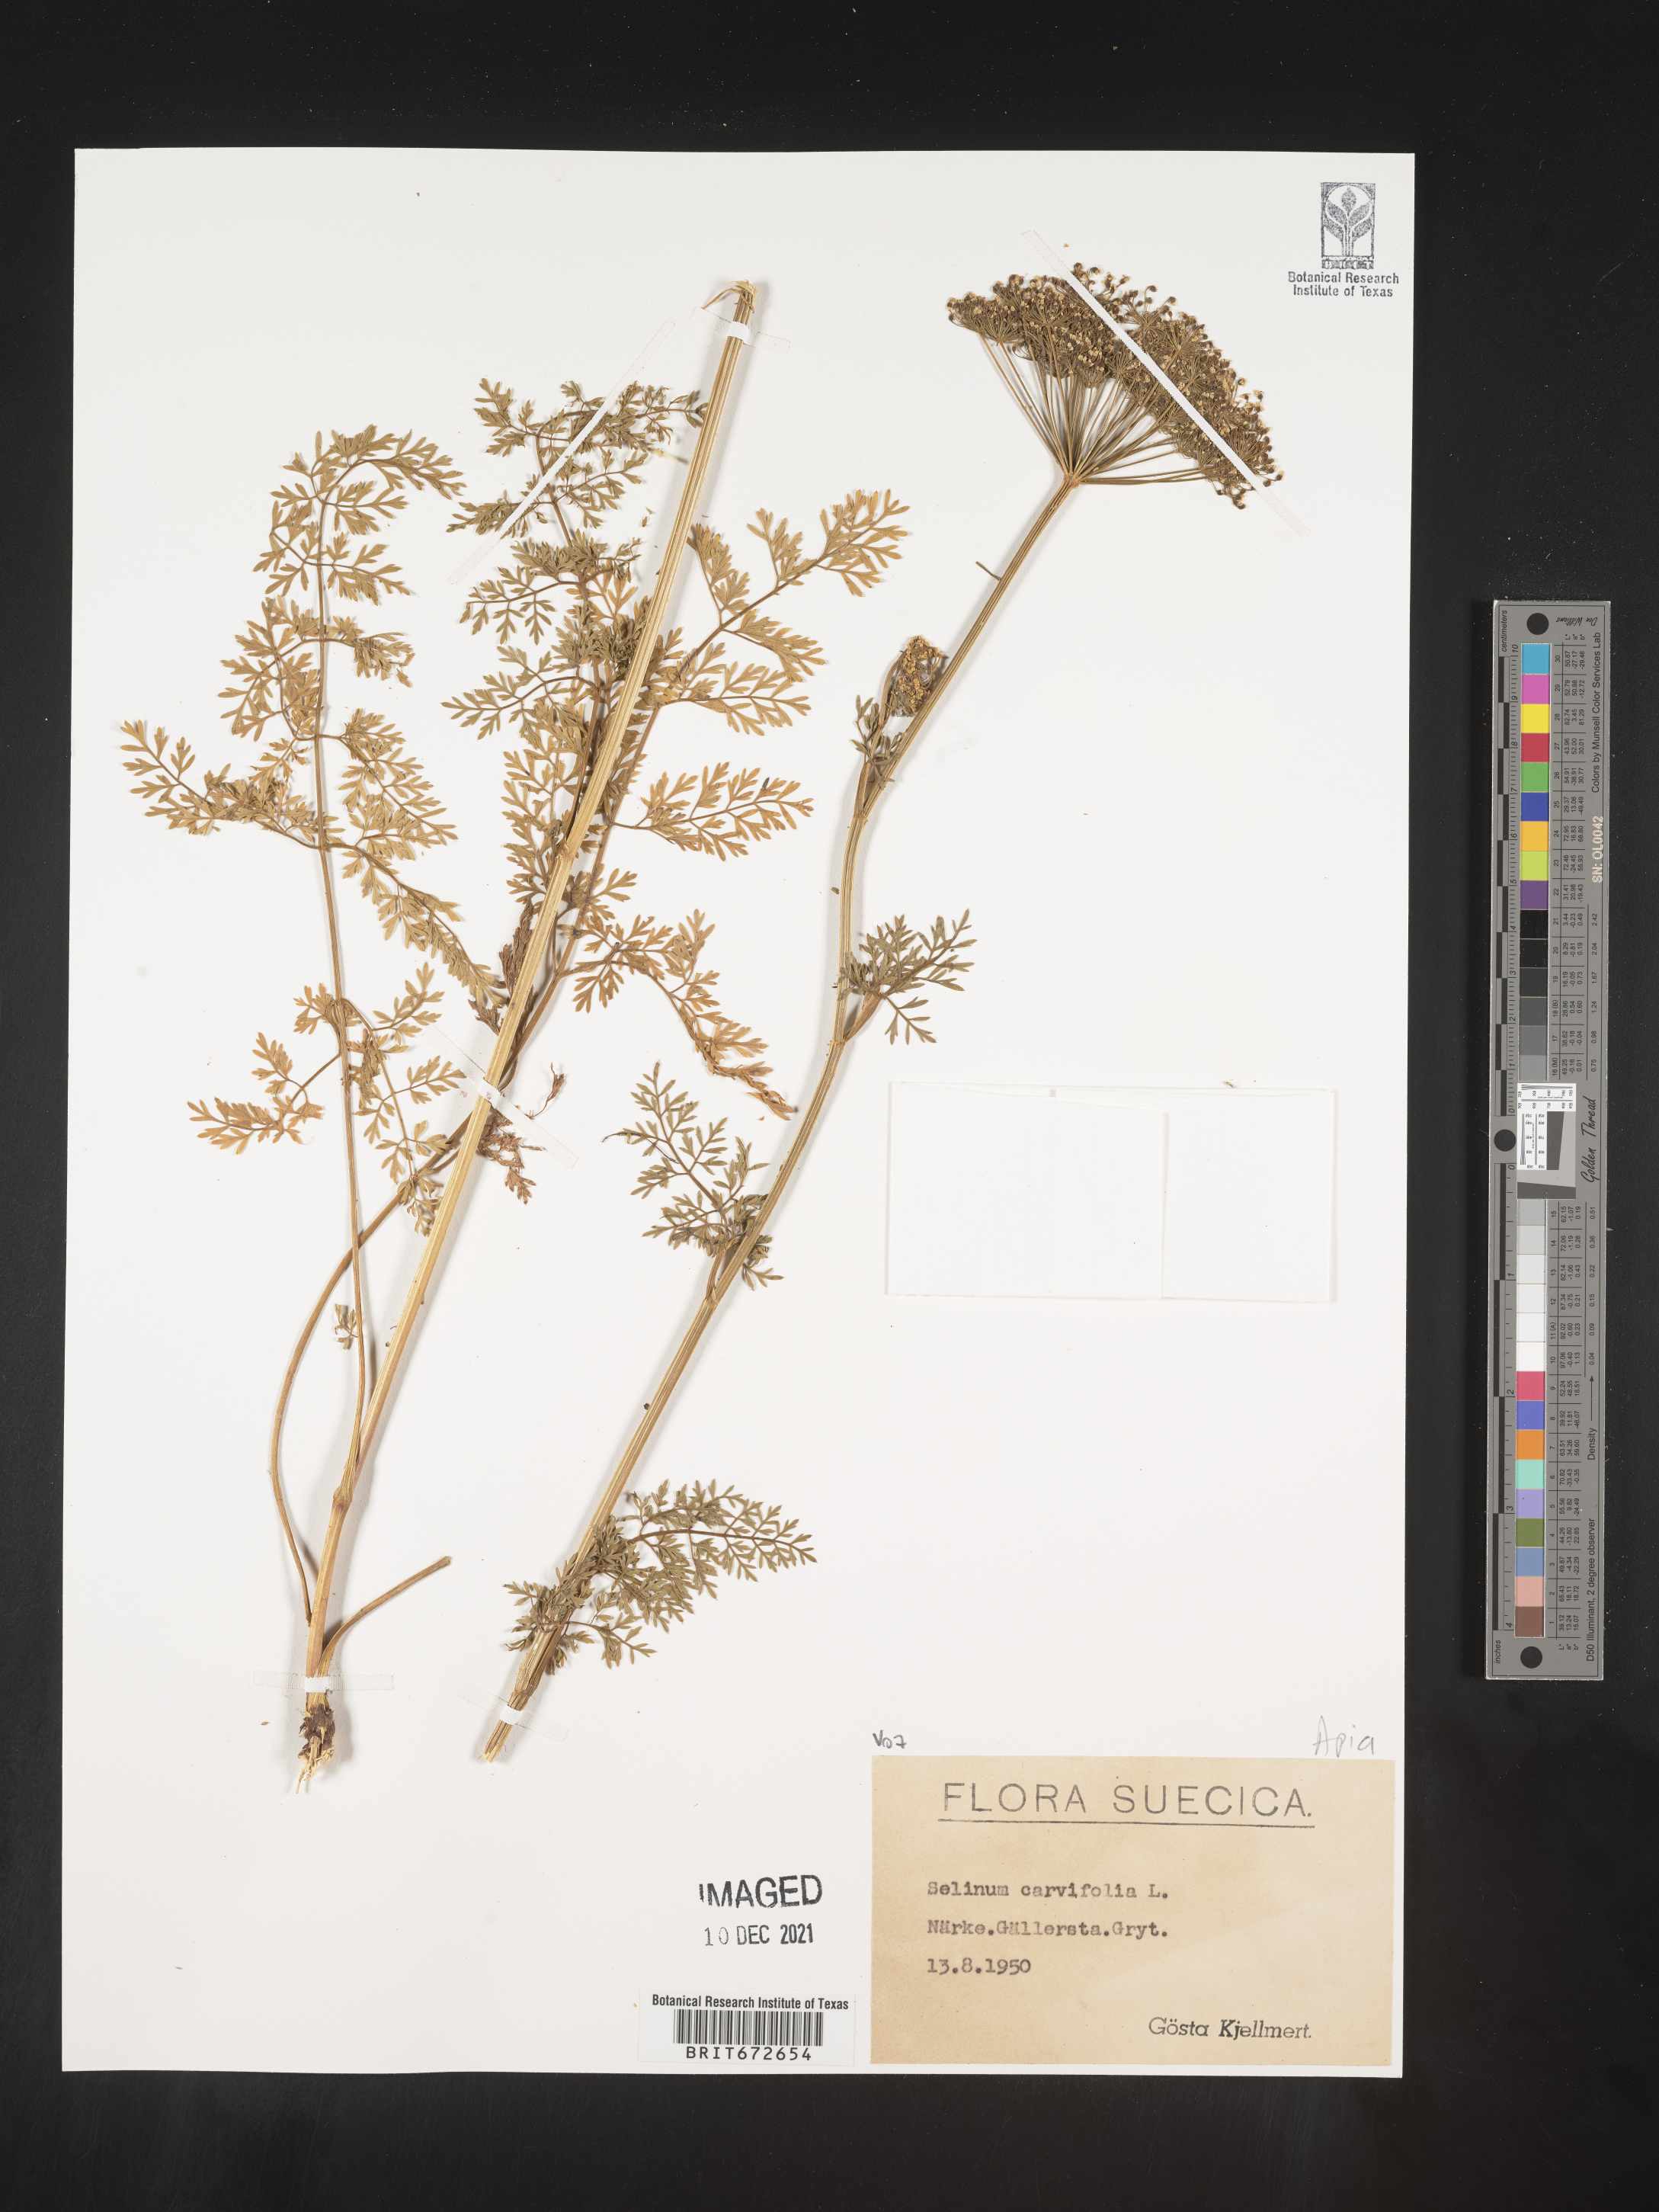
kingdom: Plantae
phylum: Tracheophyta
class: Magnoliopsida
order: Apiales
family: Apiaceae
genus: Selinum
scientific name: Selinum
